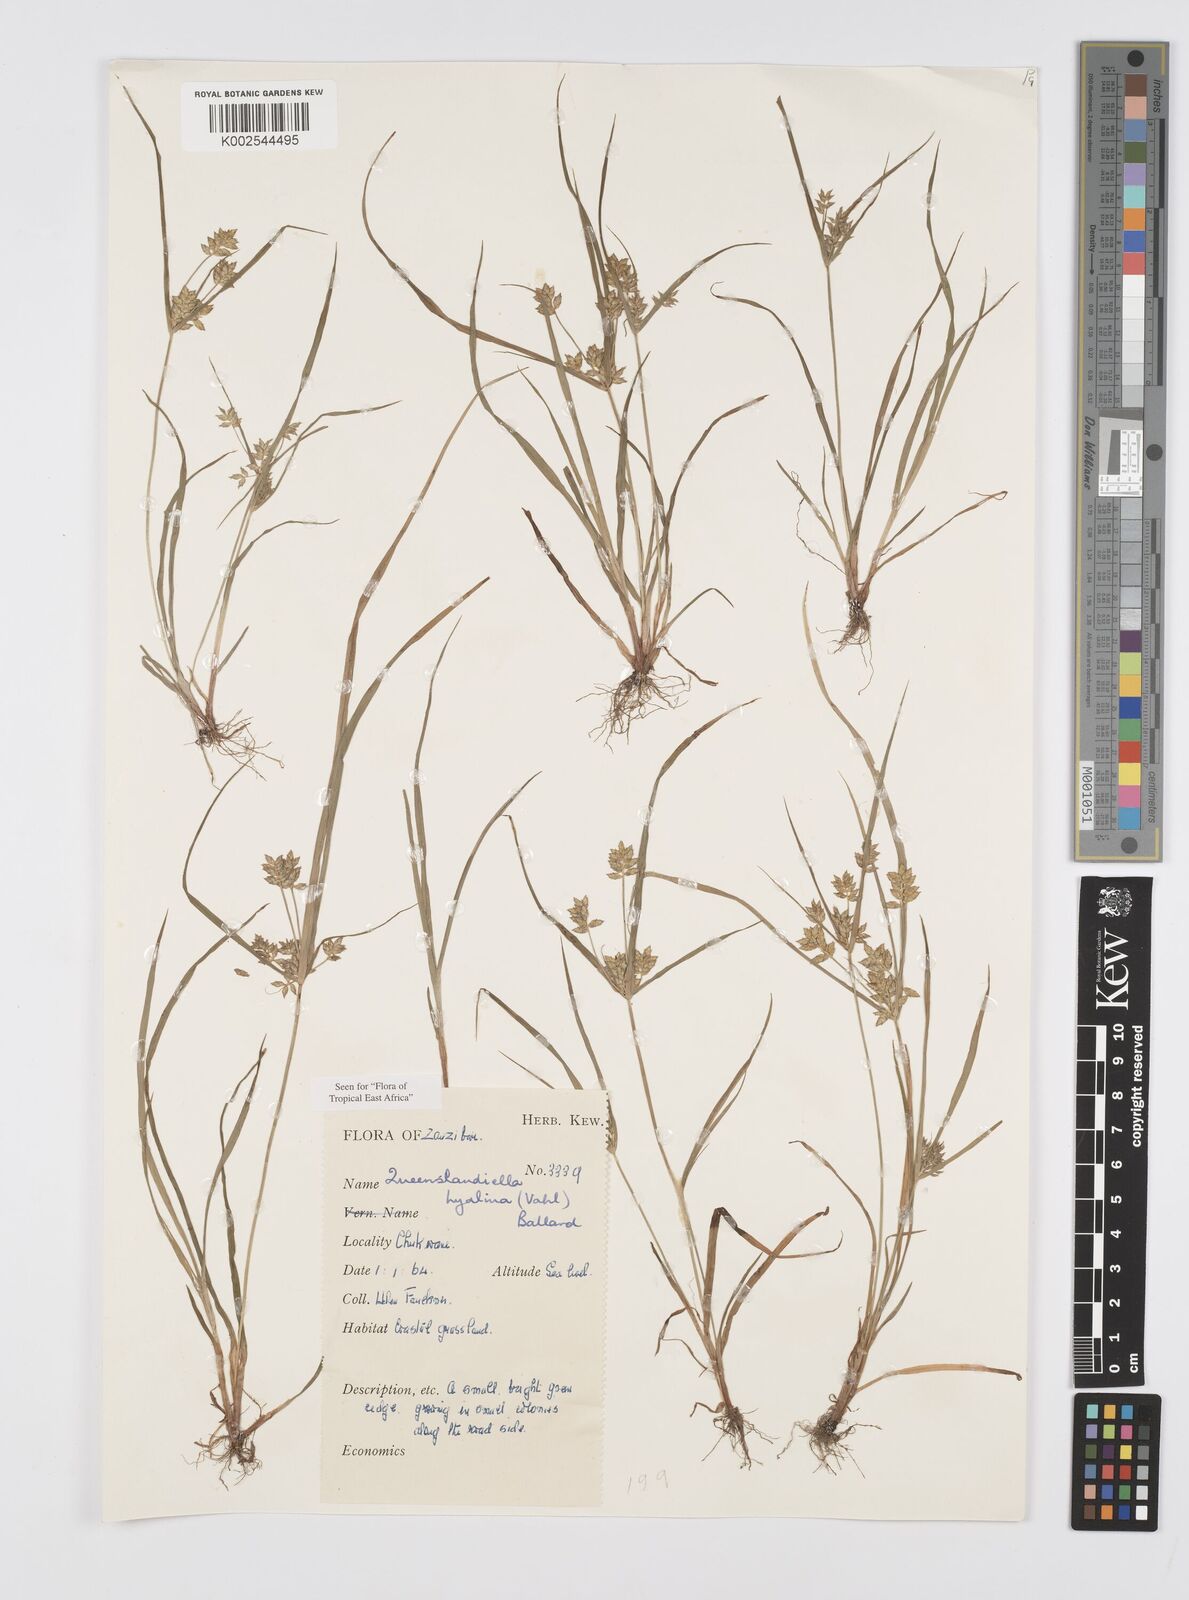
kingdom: Plantae
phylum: Tracheophyta
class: Liliopsida
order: Poales
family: Cyperaceae
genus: Cyperus
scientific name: Cyperus hyalinus
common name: Queensland sedge
